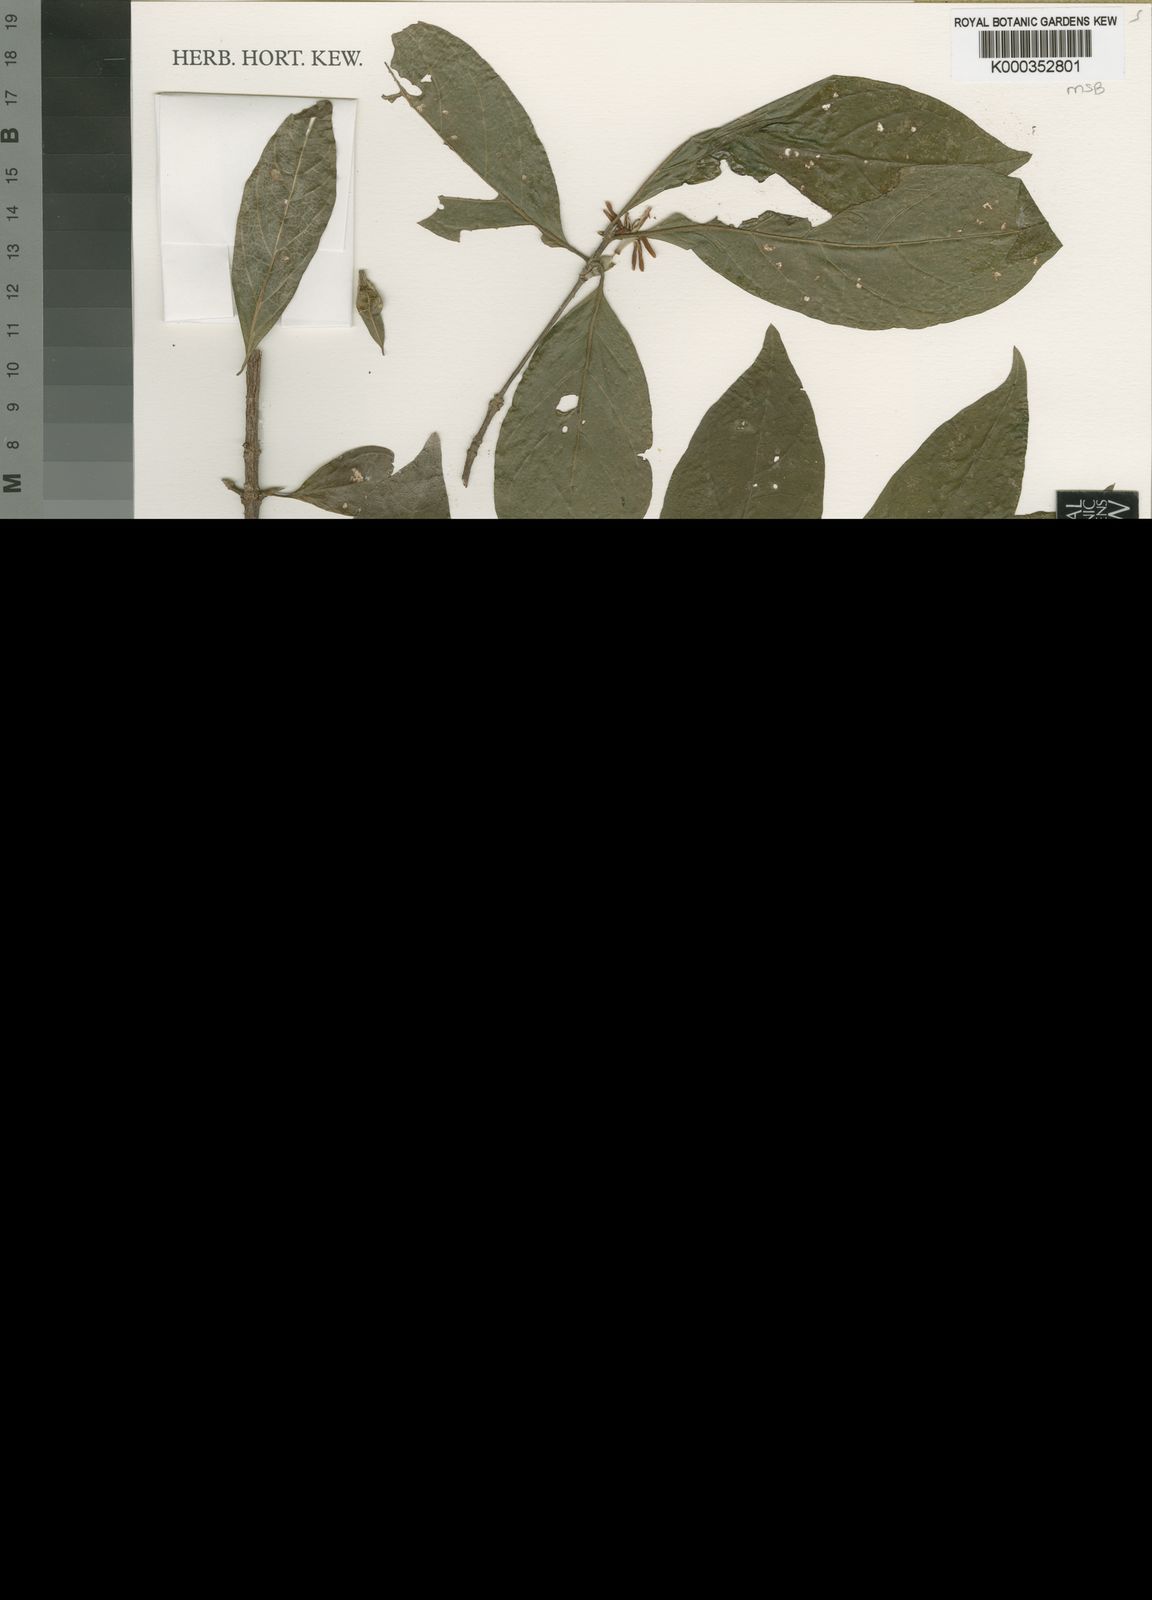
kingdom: Plantae
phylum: Tracheophyta
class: Magnoliopsida
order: Gentianales
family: Rubiaceae
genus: Sericanthe
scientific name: Sericanthe odoratissima
